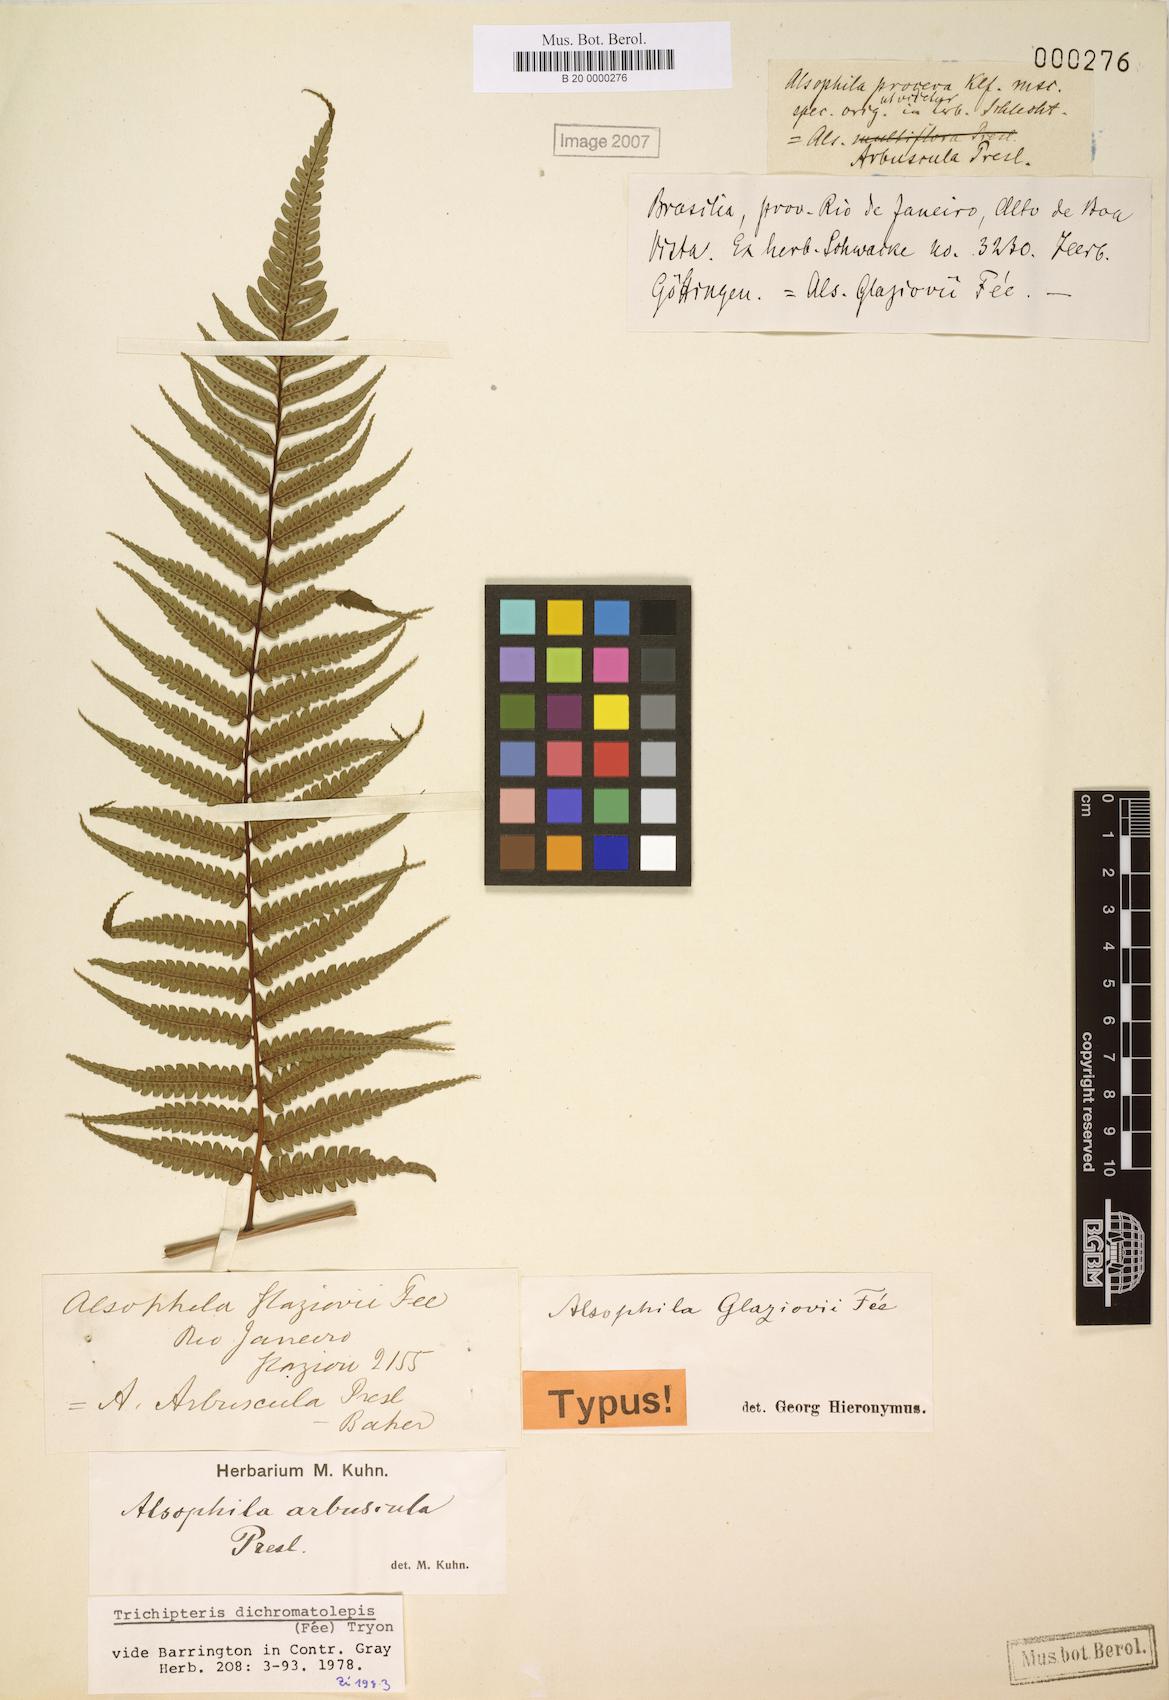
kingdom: Plantae
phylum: Tracheophyta
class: Polypodiopsida
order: Cyatheales
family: Cyatheaceae
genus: Cyathea
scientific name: Cyathea dichromatolepis
